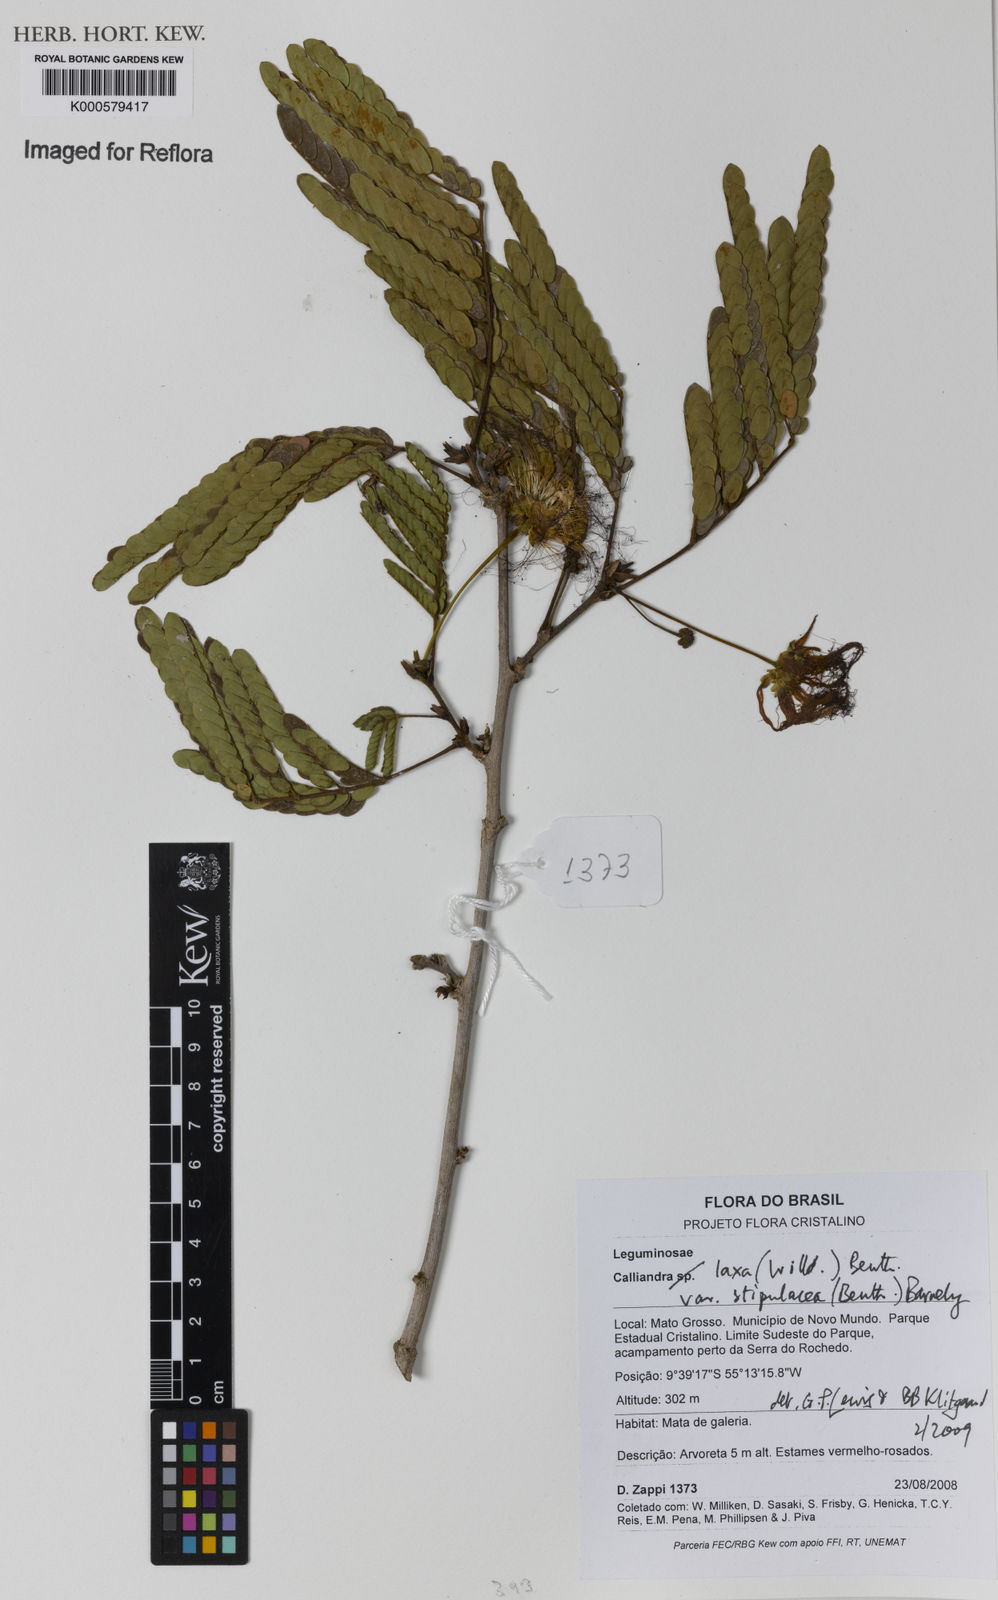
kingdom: Plantae
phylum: Tracheophyta
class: Magnoliopsida
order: Fabales
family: Fabaceae
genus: Calliandra
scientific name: Calliandra laxa
